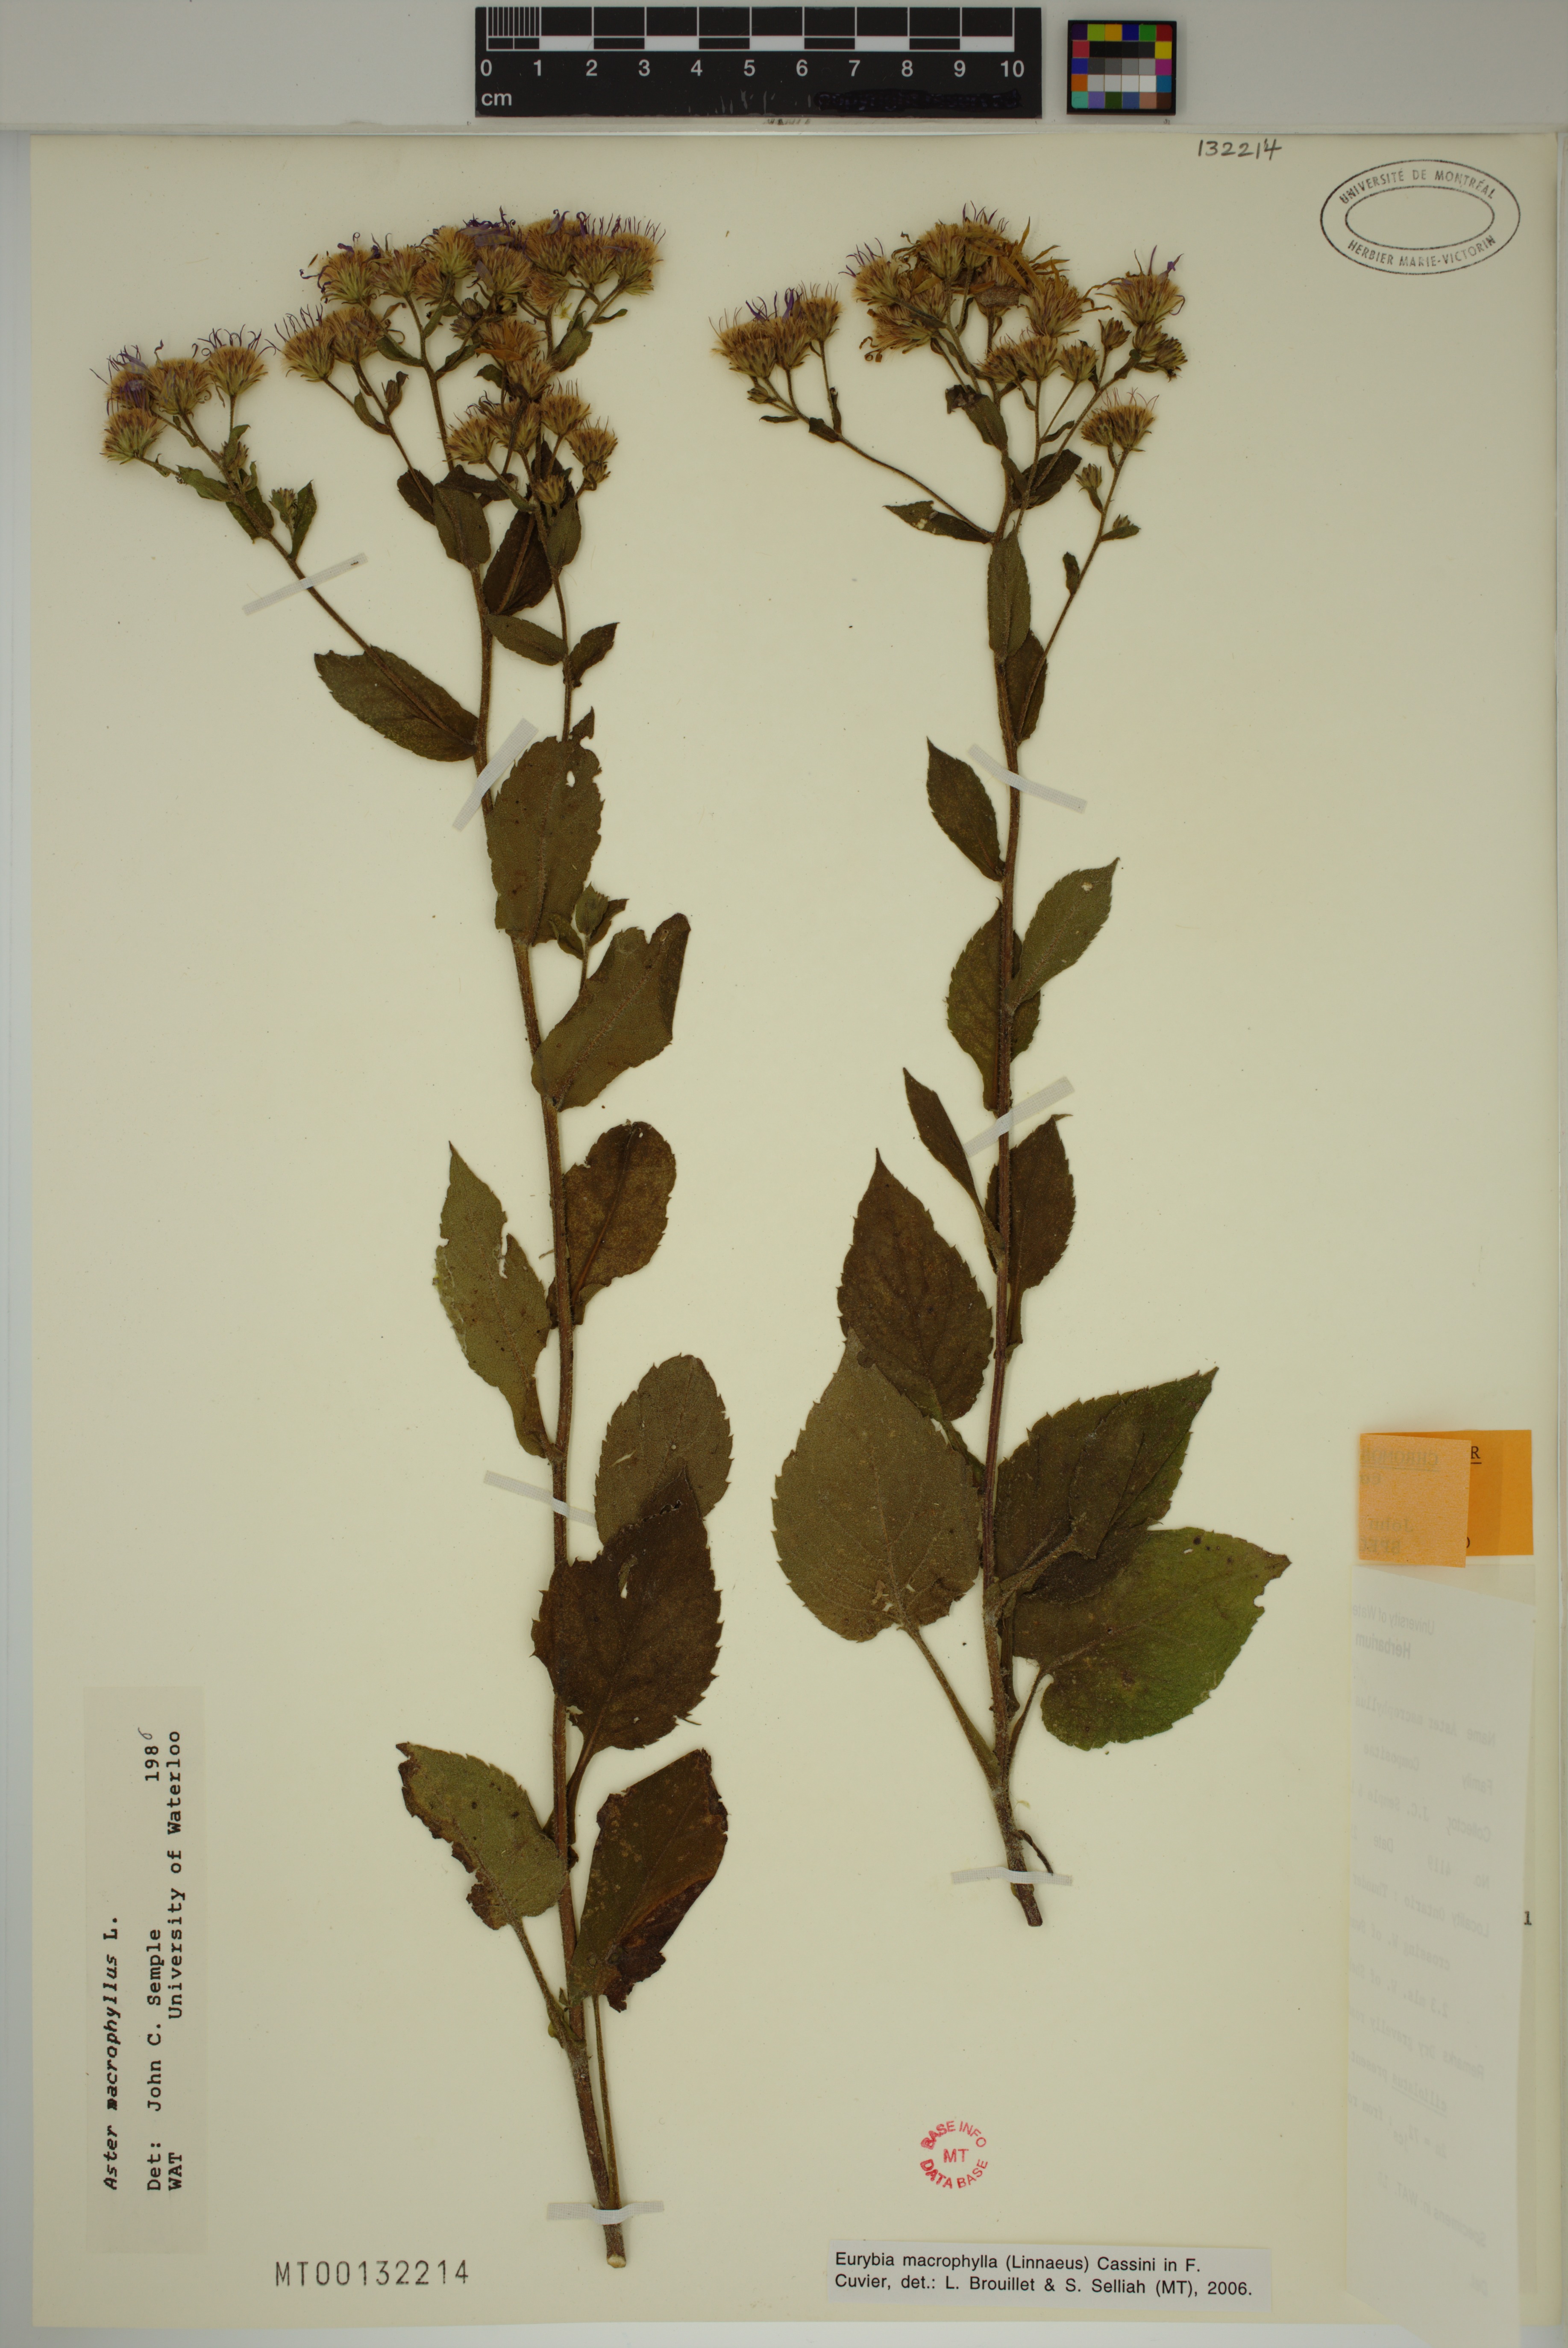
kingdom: Plantae
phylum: Tracheophyta
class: Magnoliopsida
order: Asterales
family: Asteraceae
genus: Eurybia
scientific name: Eurybia macrophylla
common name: Big-leaved aster
